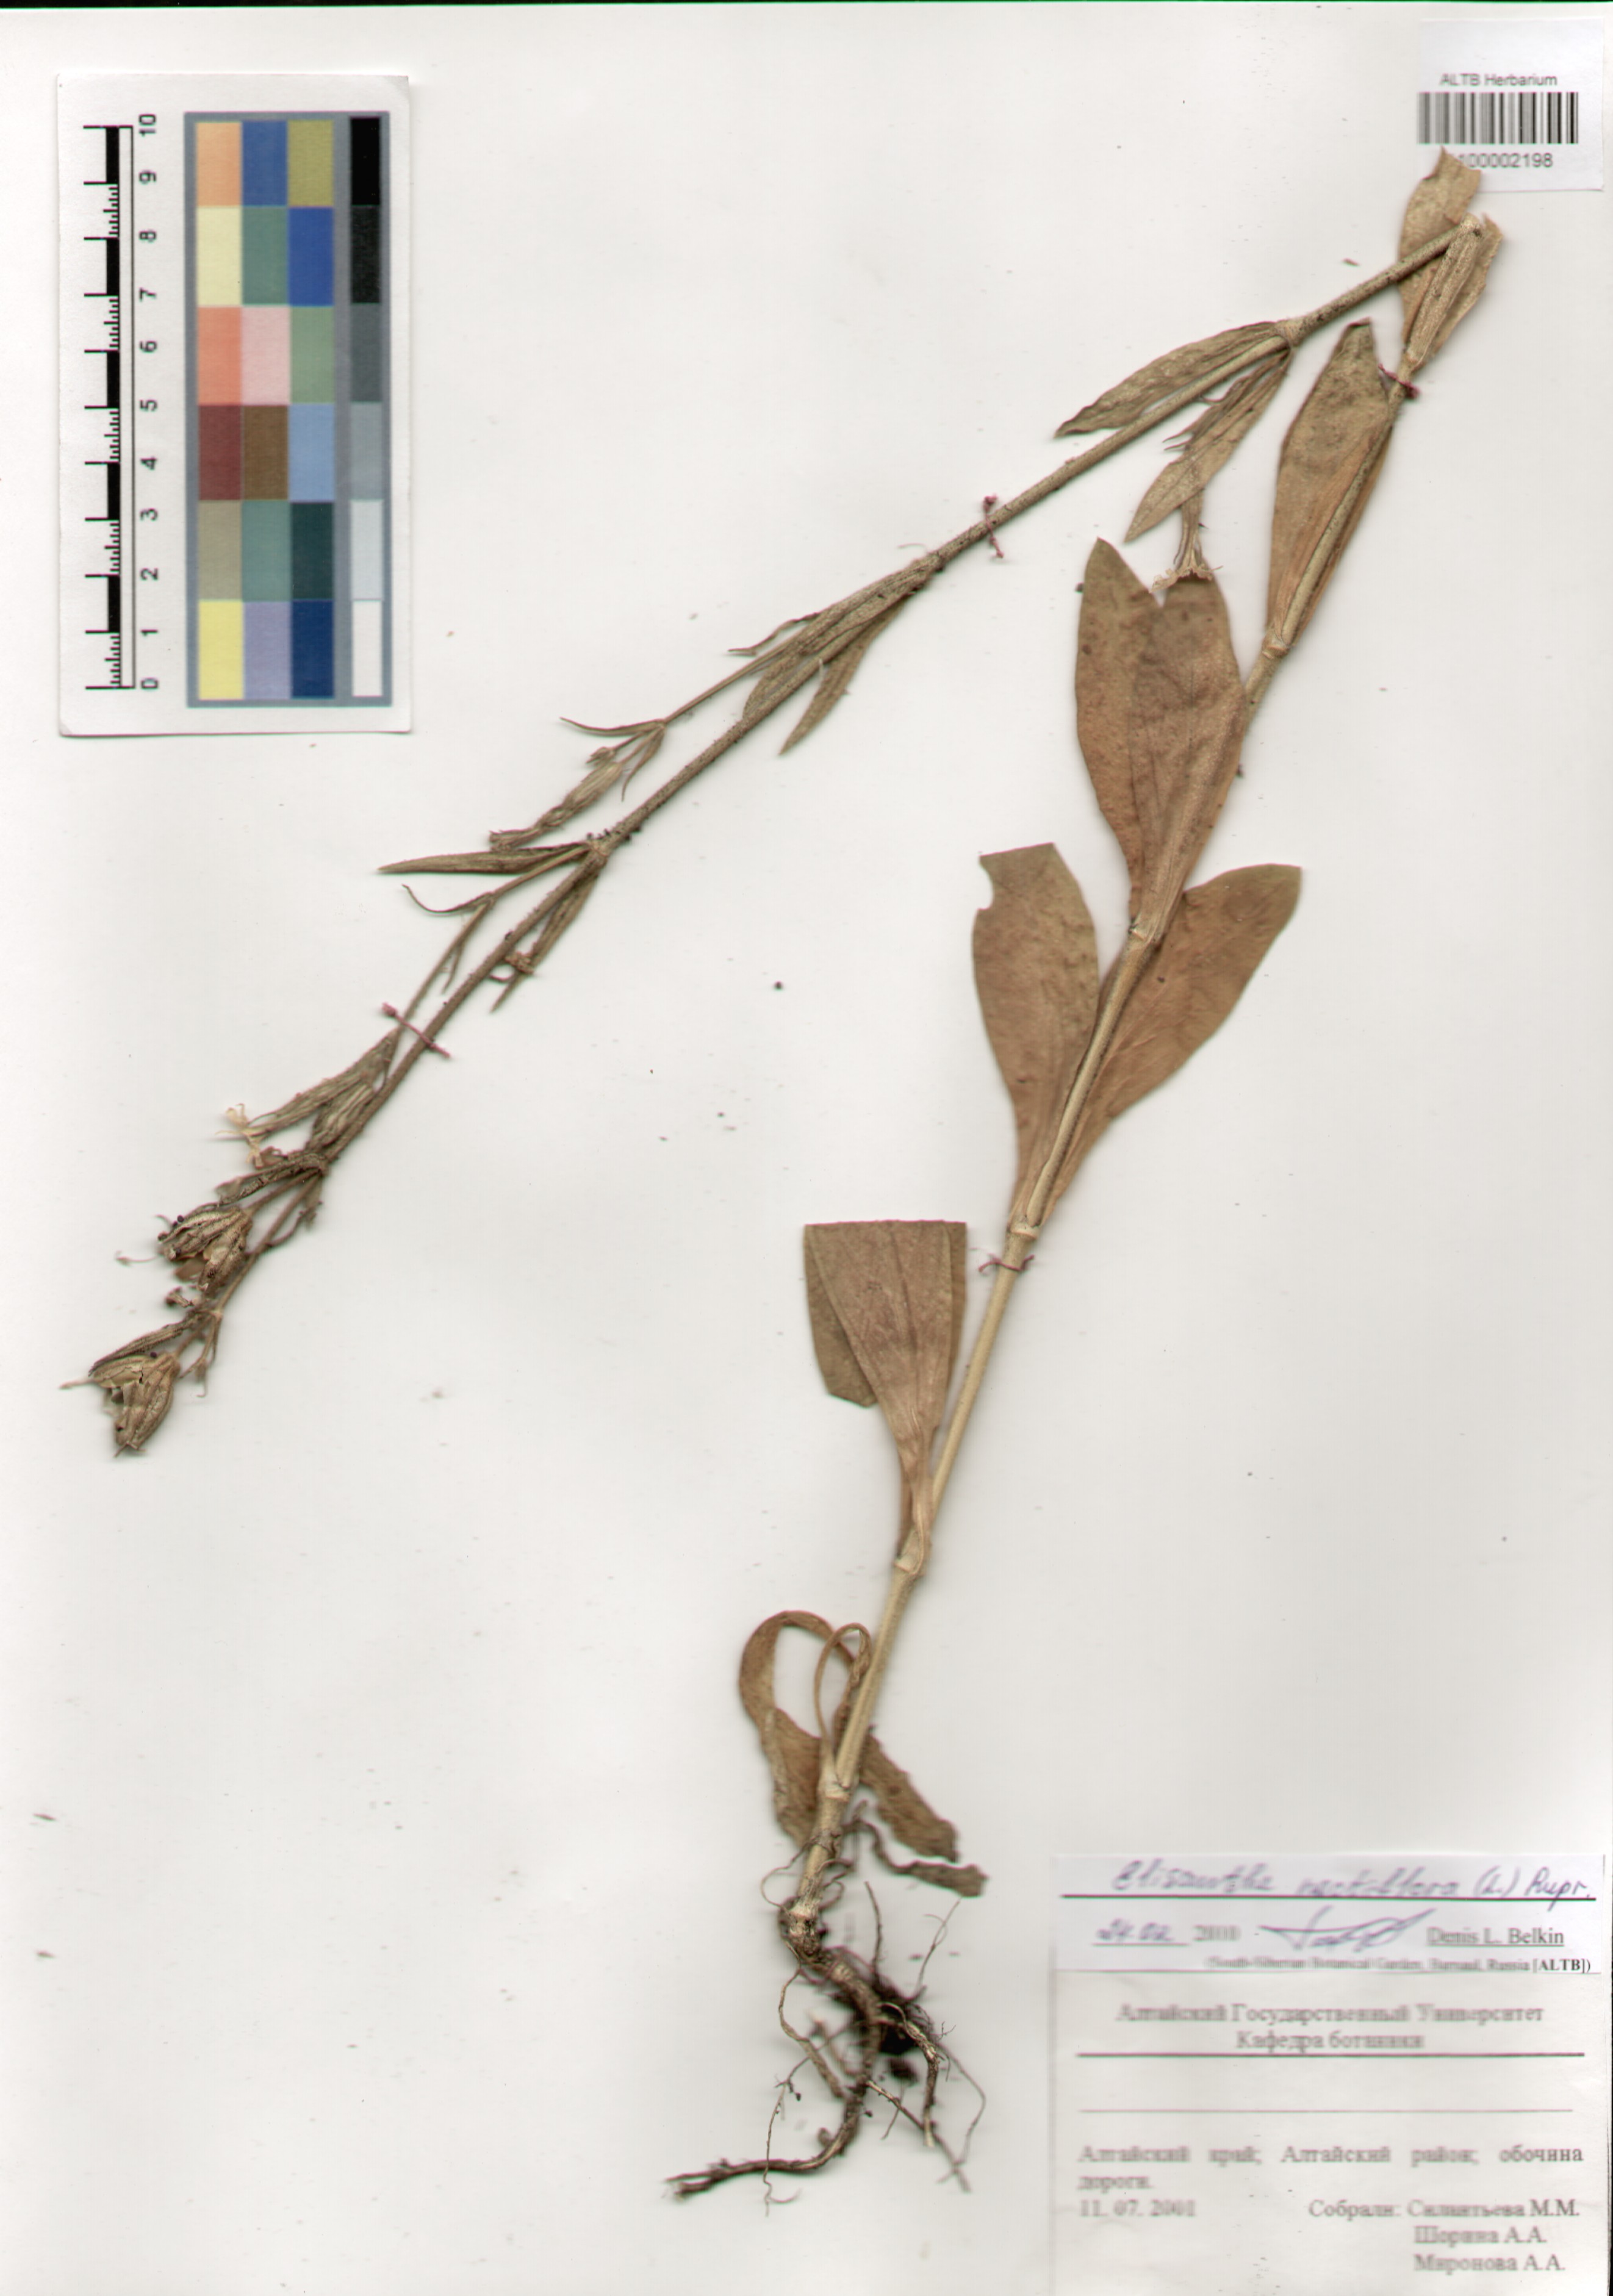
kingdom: Plantae
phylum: Tracheophyta
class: Magnoliopsida
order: Caryophyllales
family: Caryophyllaceae
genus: Silene
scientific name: Silene noctiflora
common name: Night-flowering catchfly
